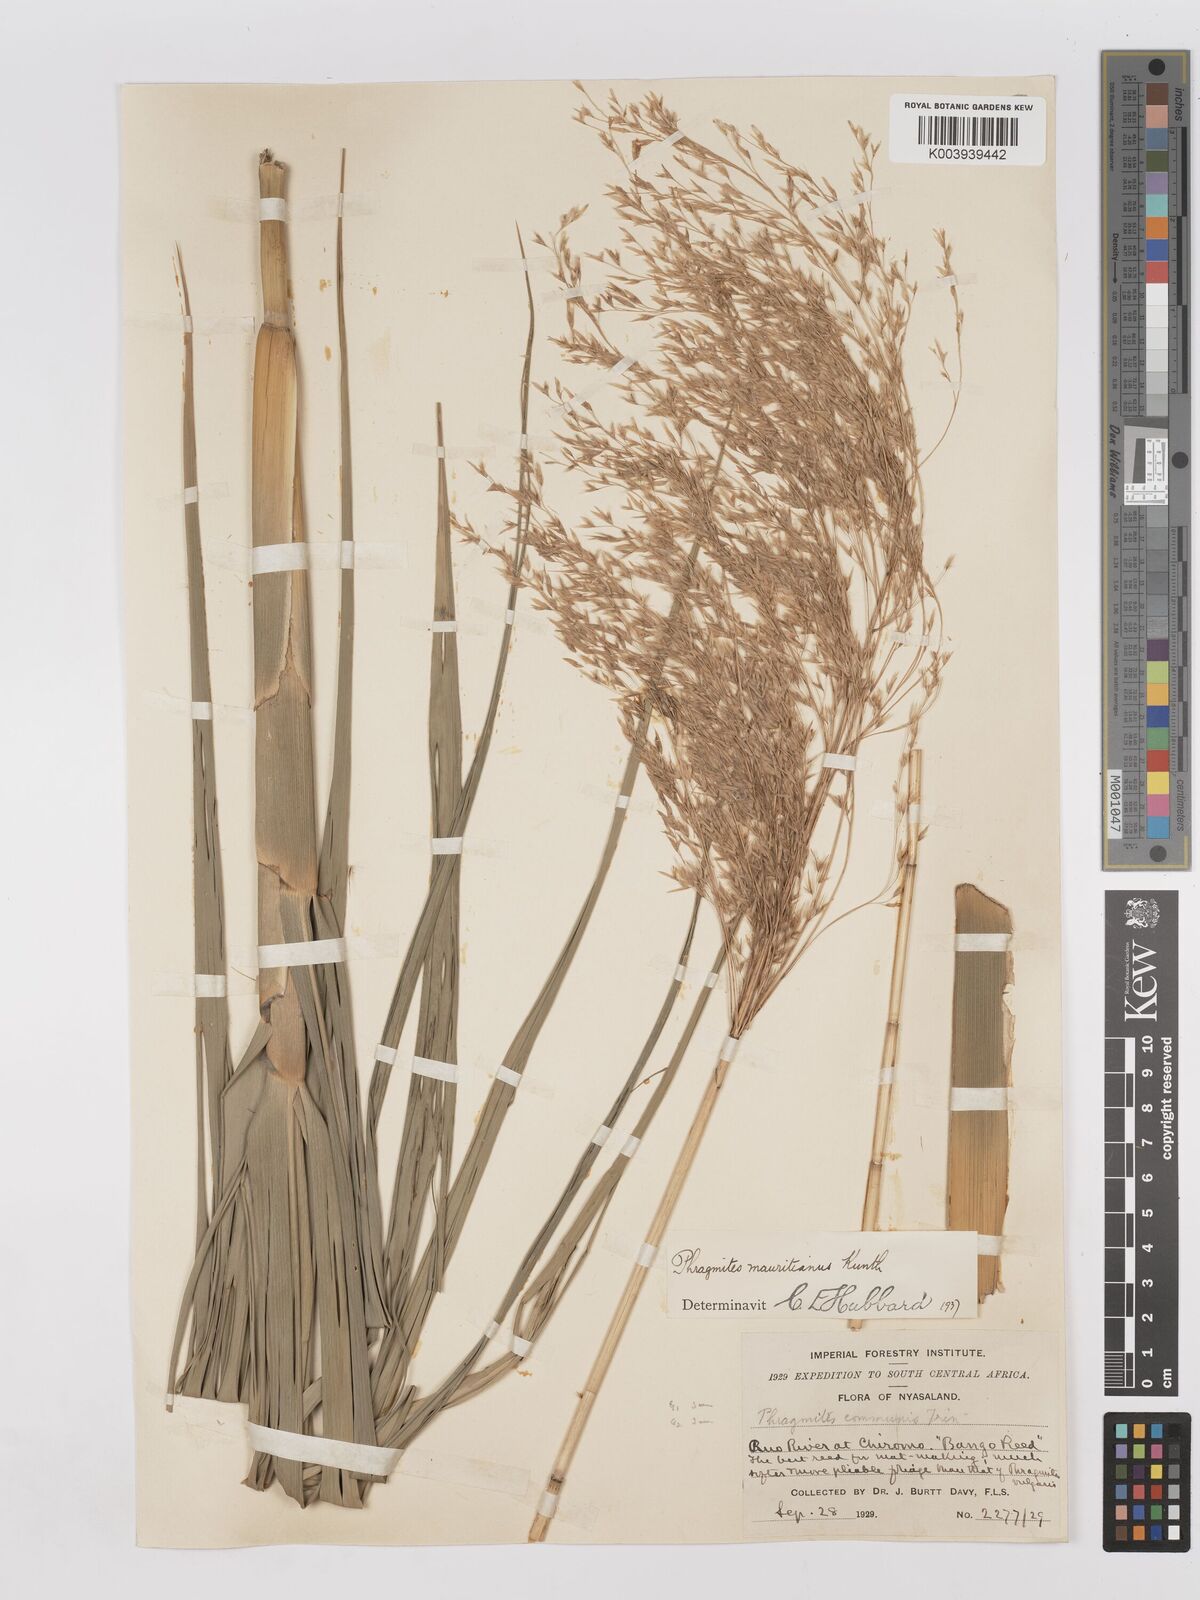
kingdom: Plantae
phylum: Tracheophyta
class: Liliopsida
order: Poales
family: Poaceae
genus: Phragmites
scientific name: Phragmites mauritianus
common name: Reed grass
